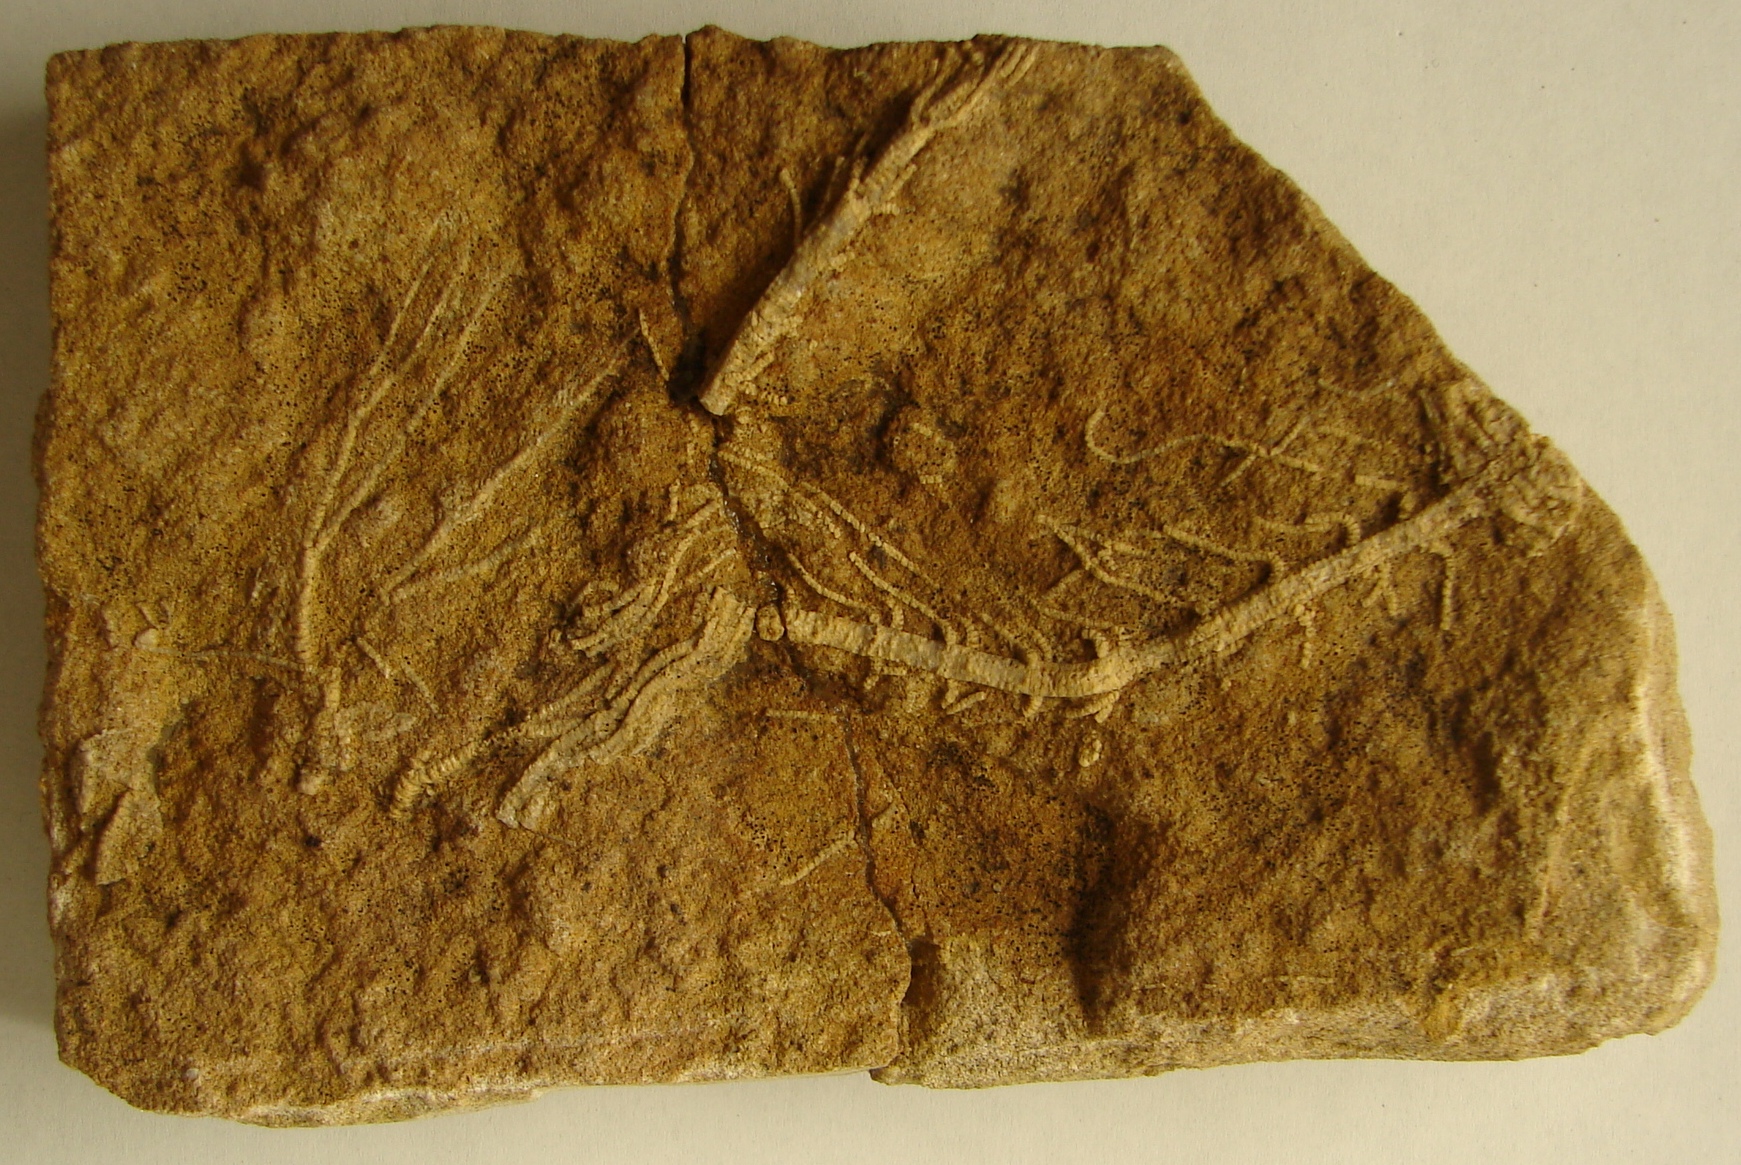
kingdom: Animalia
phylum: Echinodermata
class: Crinoidea
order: Isocrinida
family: Pentacrinitidae
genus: Pentacrinus
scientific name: Pentacrinus
